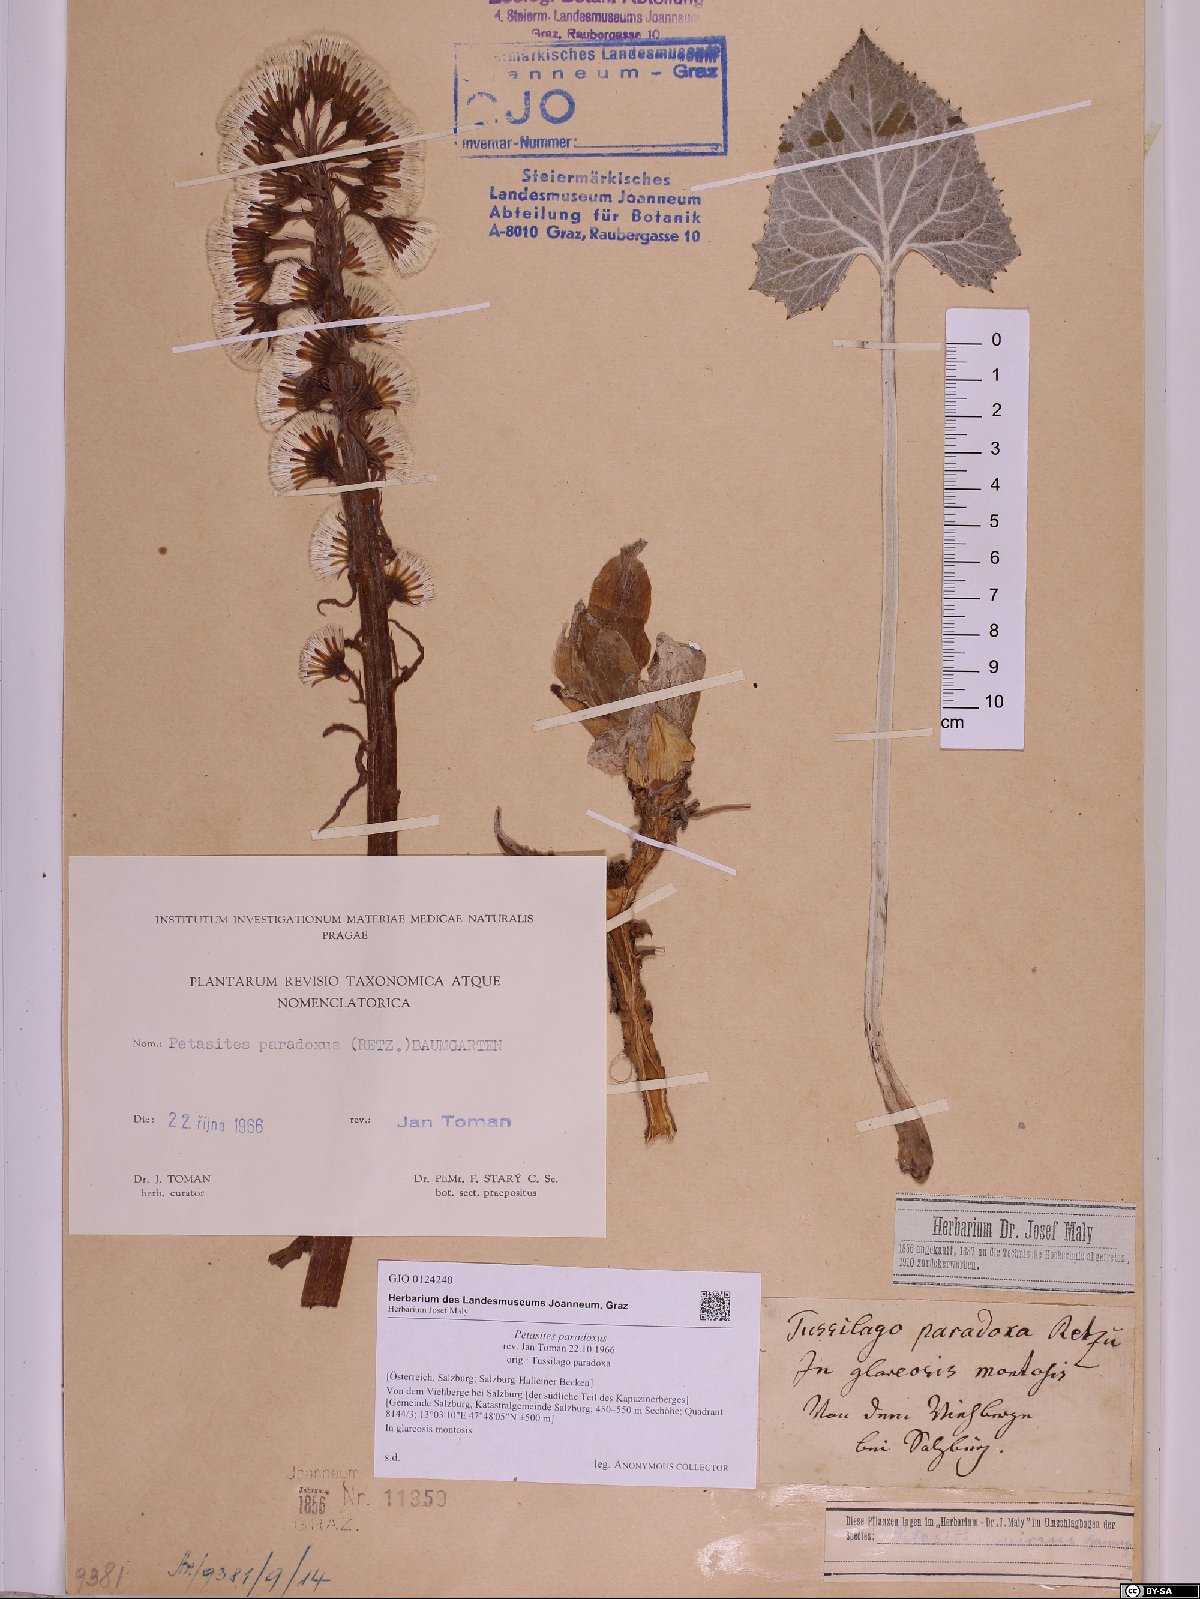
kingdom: Plantae
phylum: Tracheophyta
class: Magnoliopsida
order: Asterales
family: Asteraceae
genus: Petasites
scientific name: Petasites paradoxus
